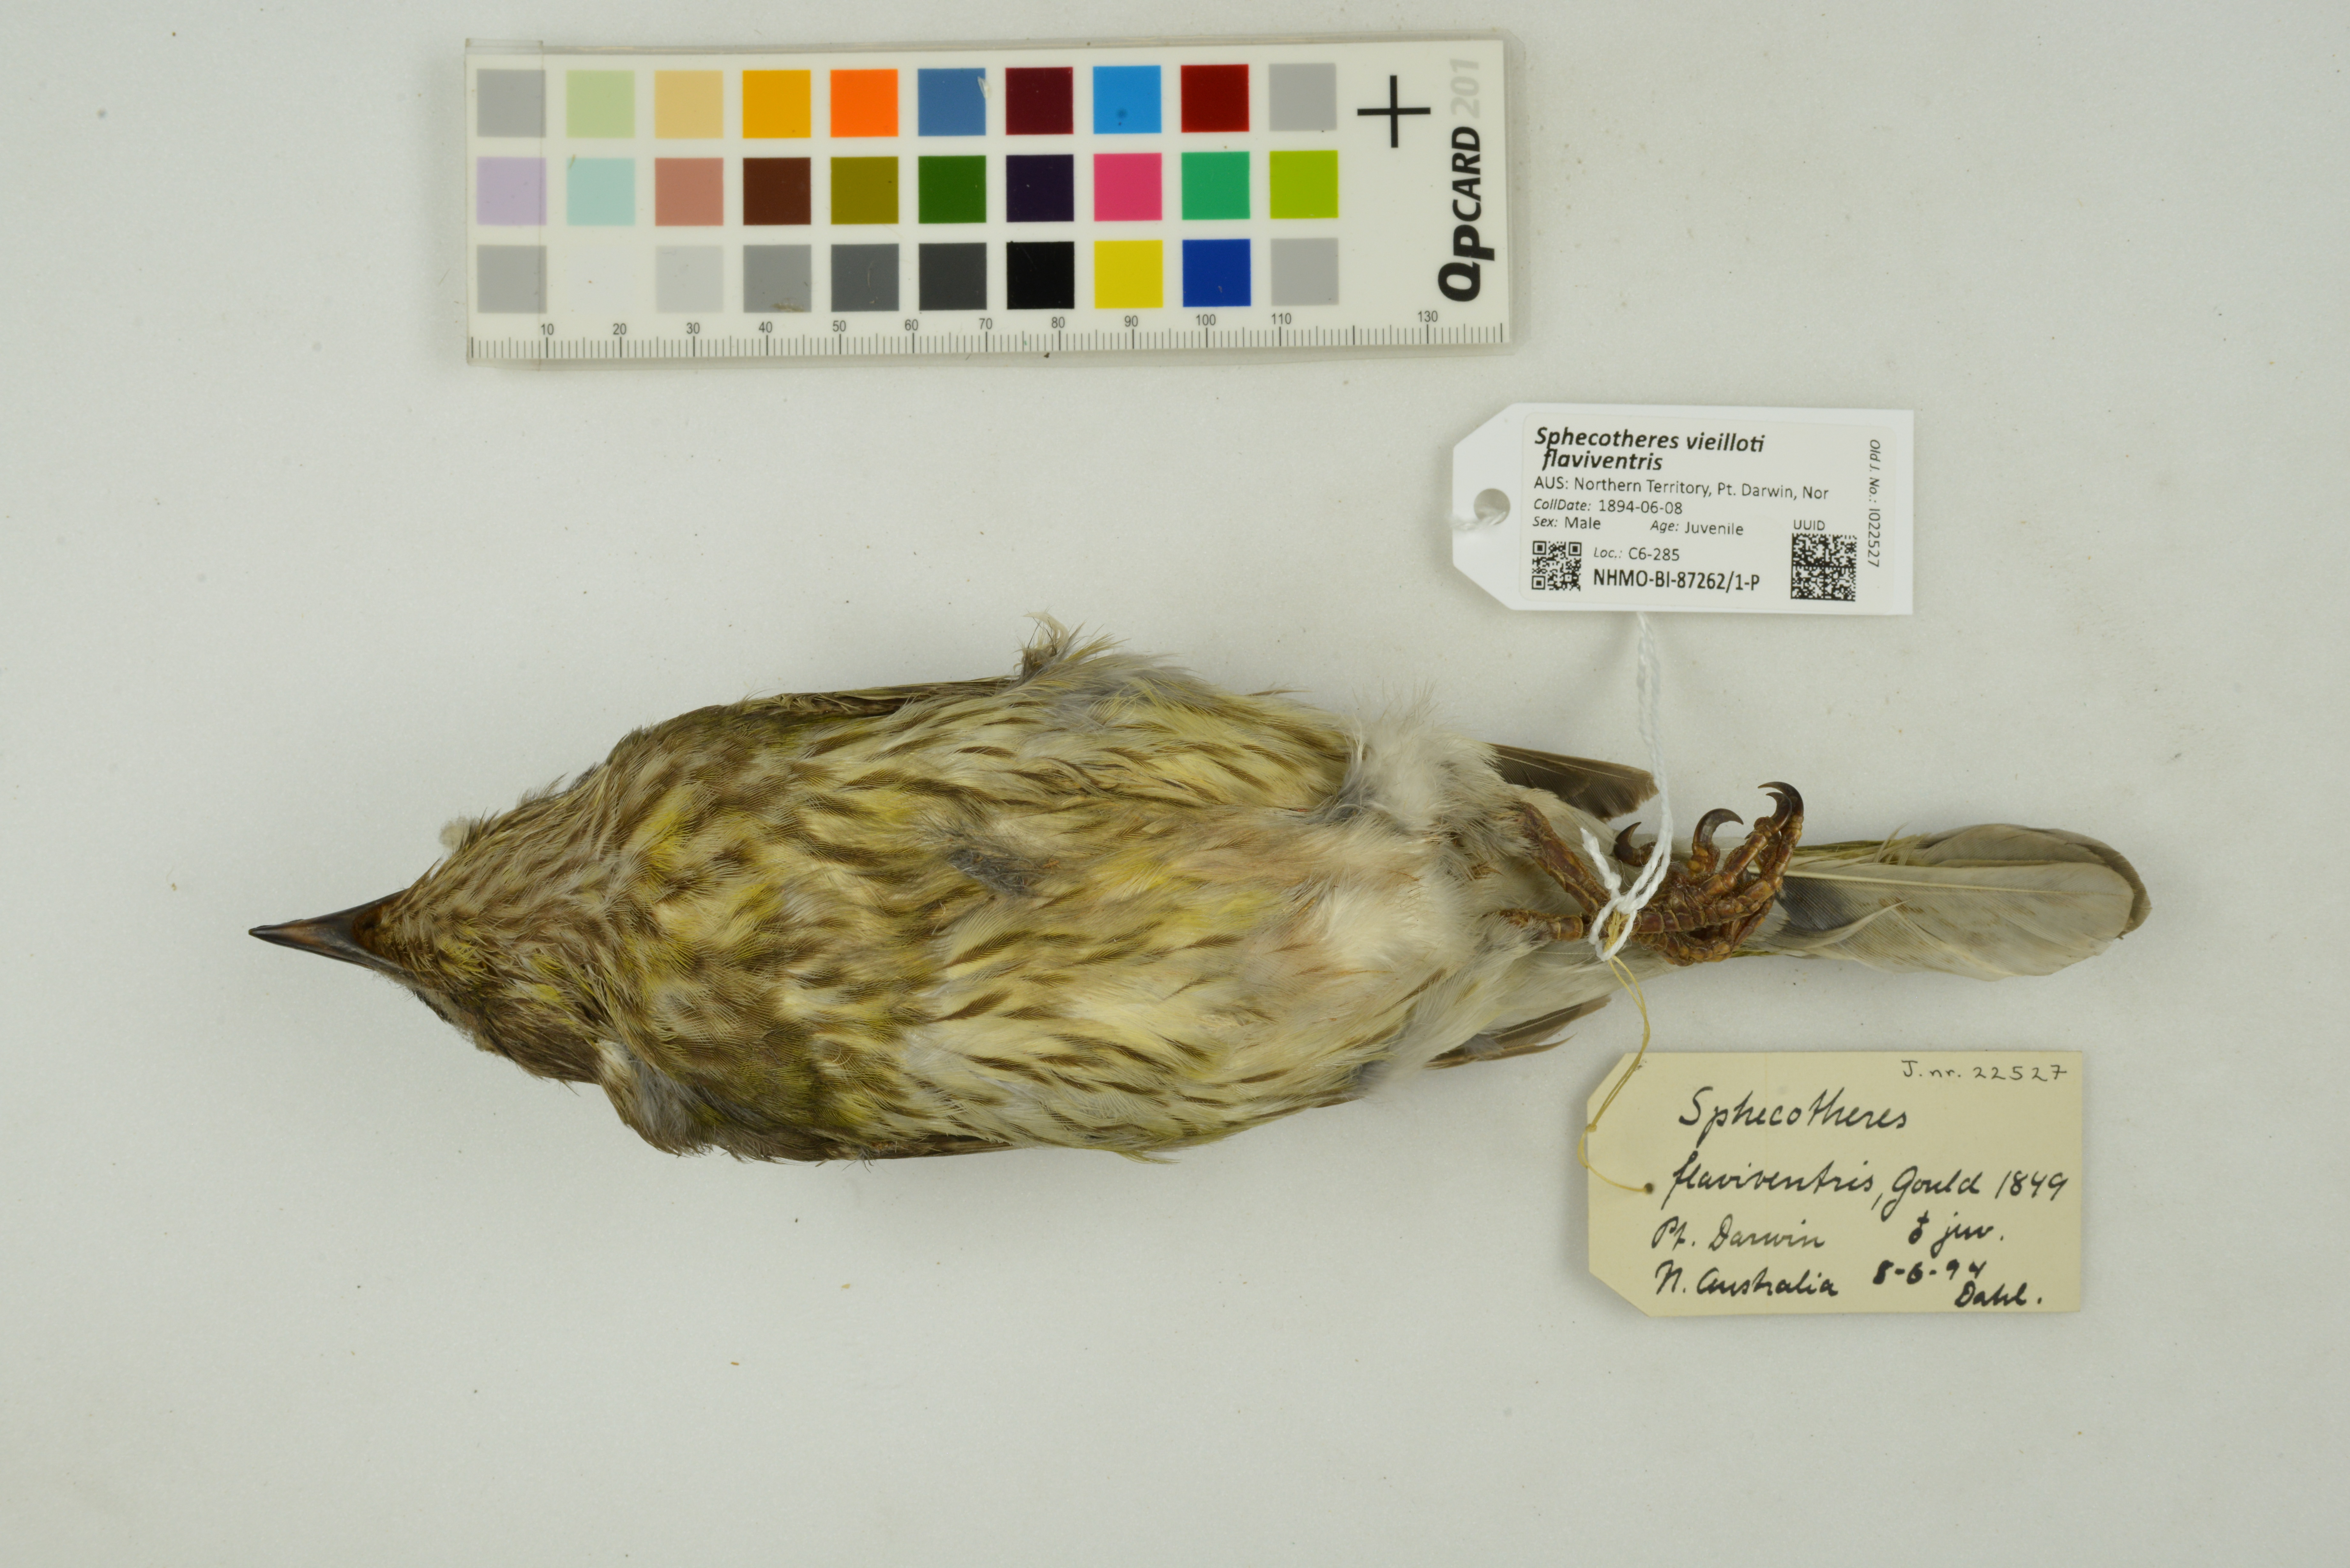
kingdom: Animalia
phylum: Chordata
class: Aves
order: Passeriformes
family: Oriolidae
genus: Sphecotheres
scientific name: Sphecotheres vieilloti
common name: Australasian figbird
